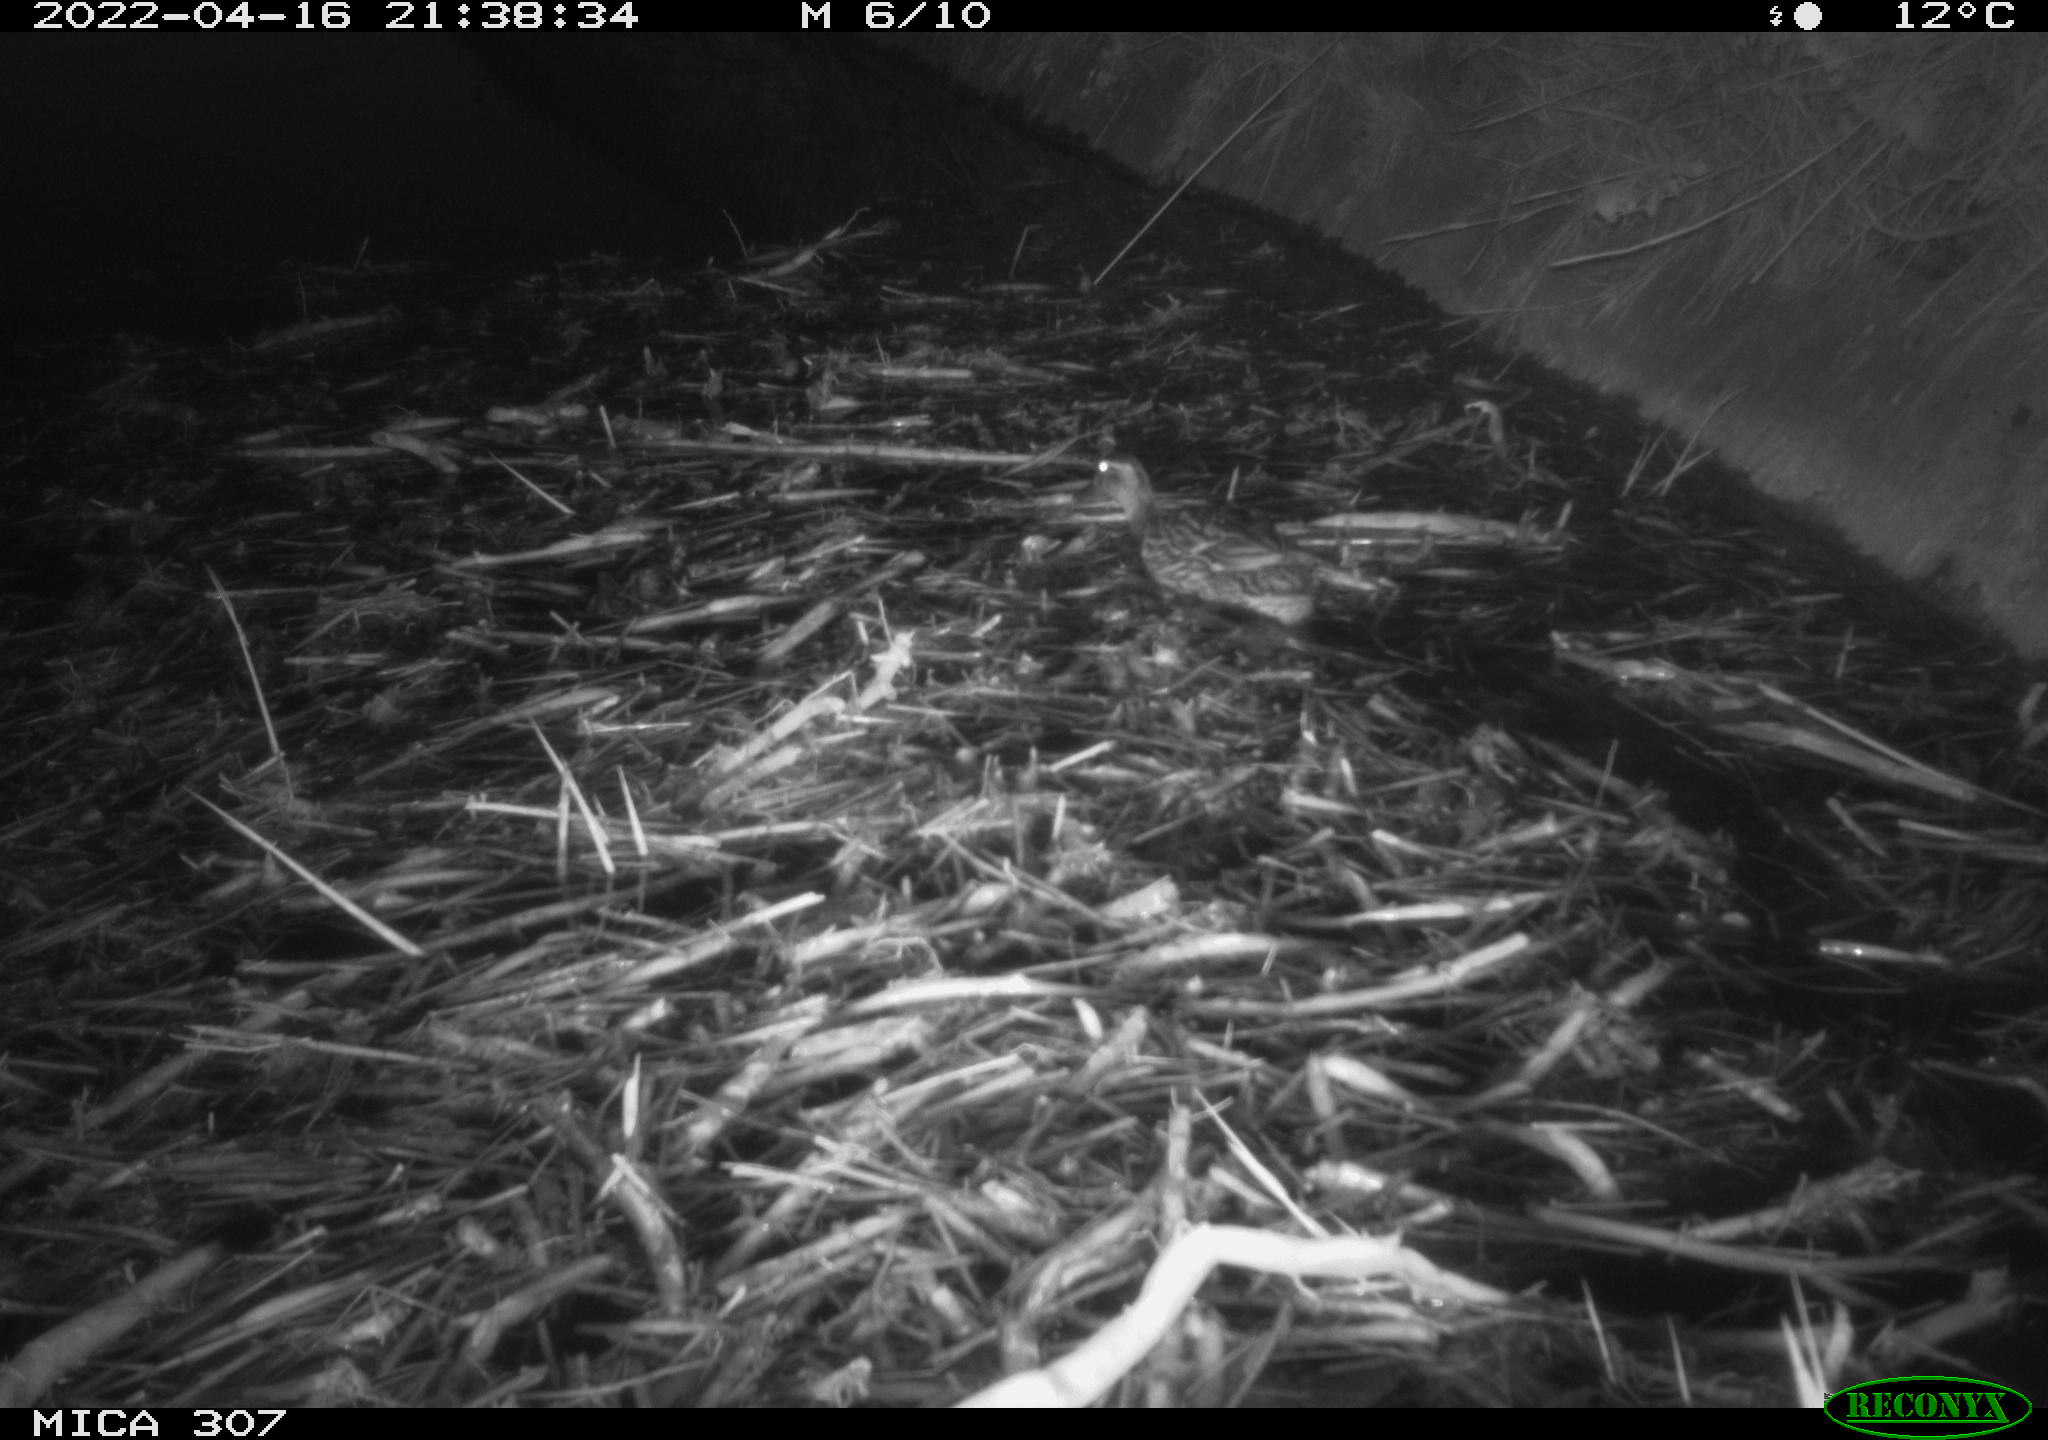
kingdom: Animalia
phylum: Chordata
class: Aves
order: Anseriformes
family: Anatidae
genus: Anas
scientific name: Anas platyrhynchos
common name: Mallard
